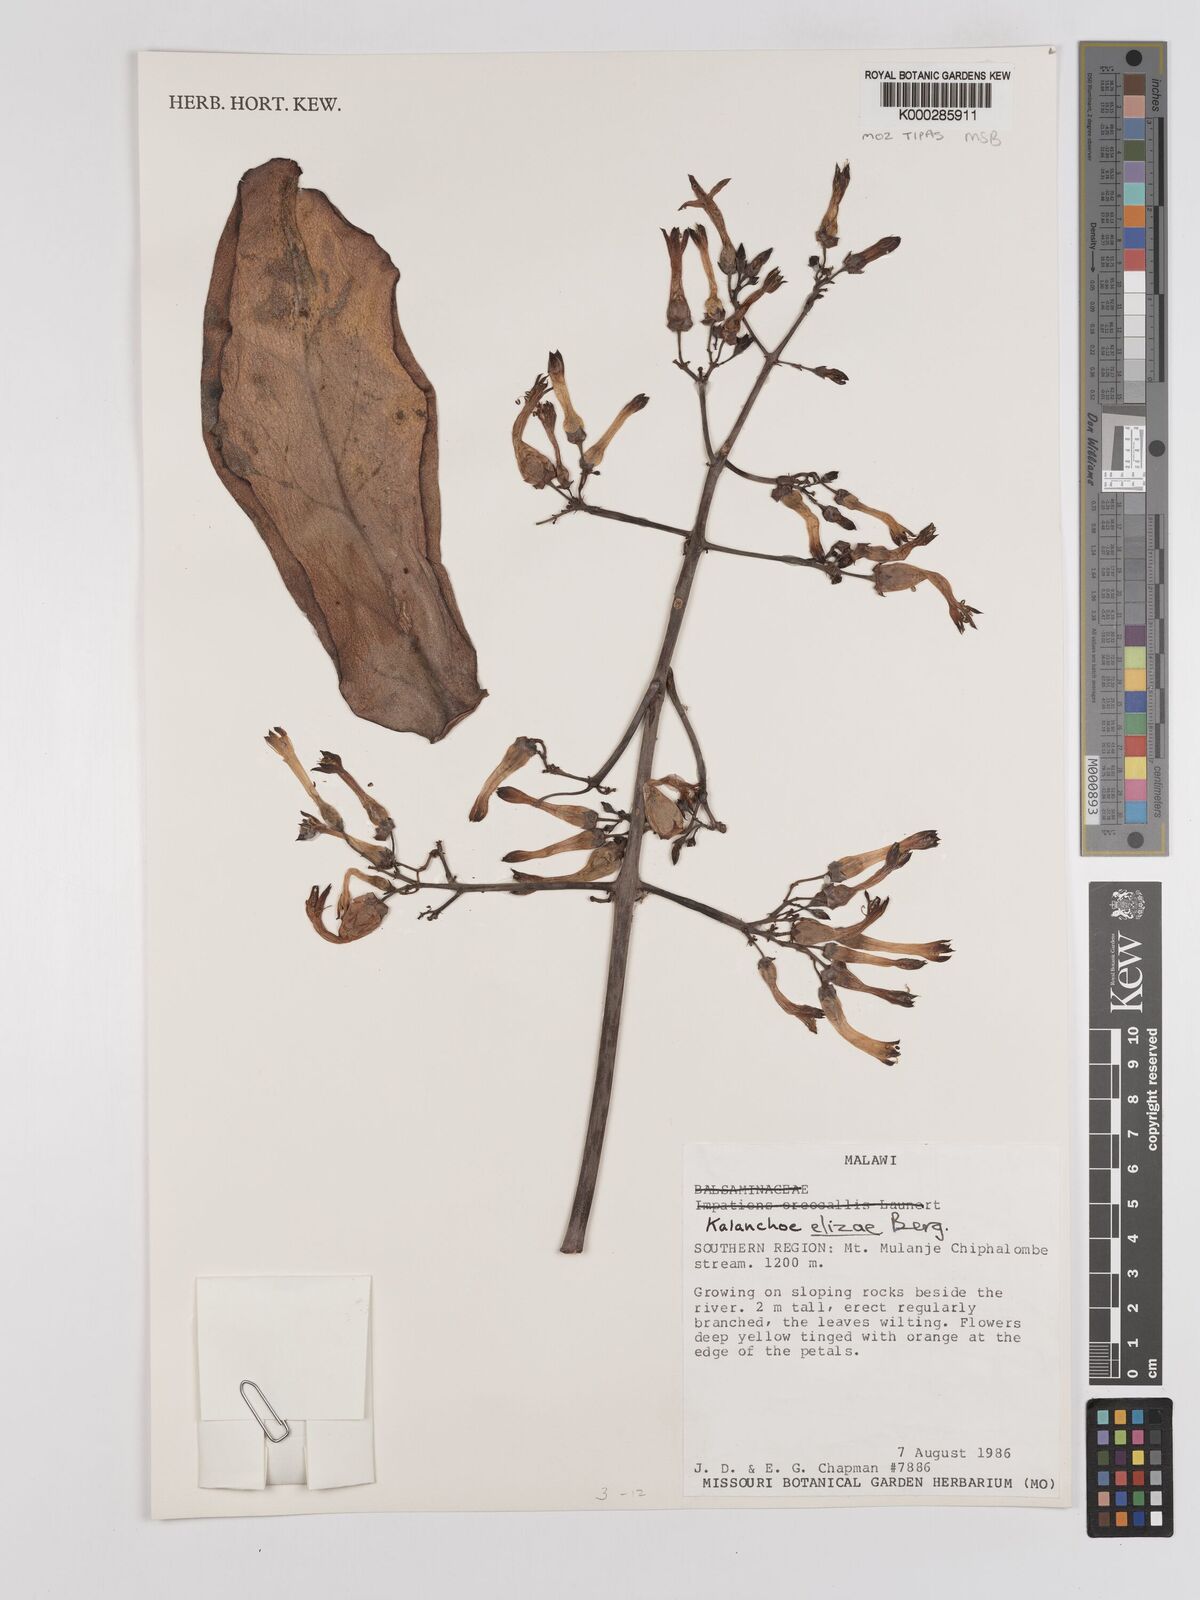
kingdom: Plantae
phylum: Tracheophyta
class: Magnoliopsida
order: Saxifragales
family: Crassulaceae
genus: Kalanchoe
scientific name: Kalanchoe elizae
